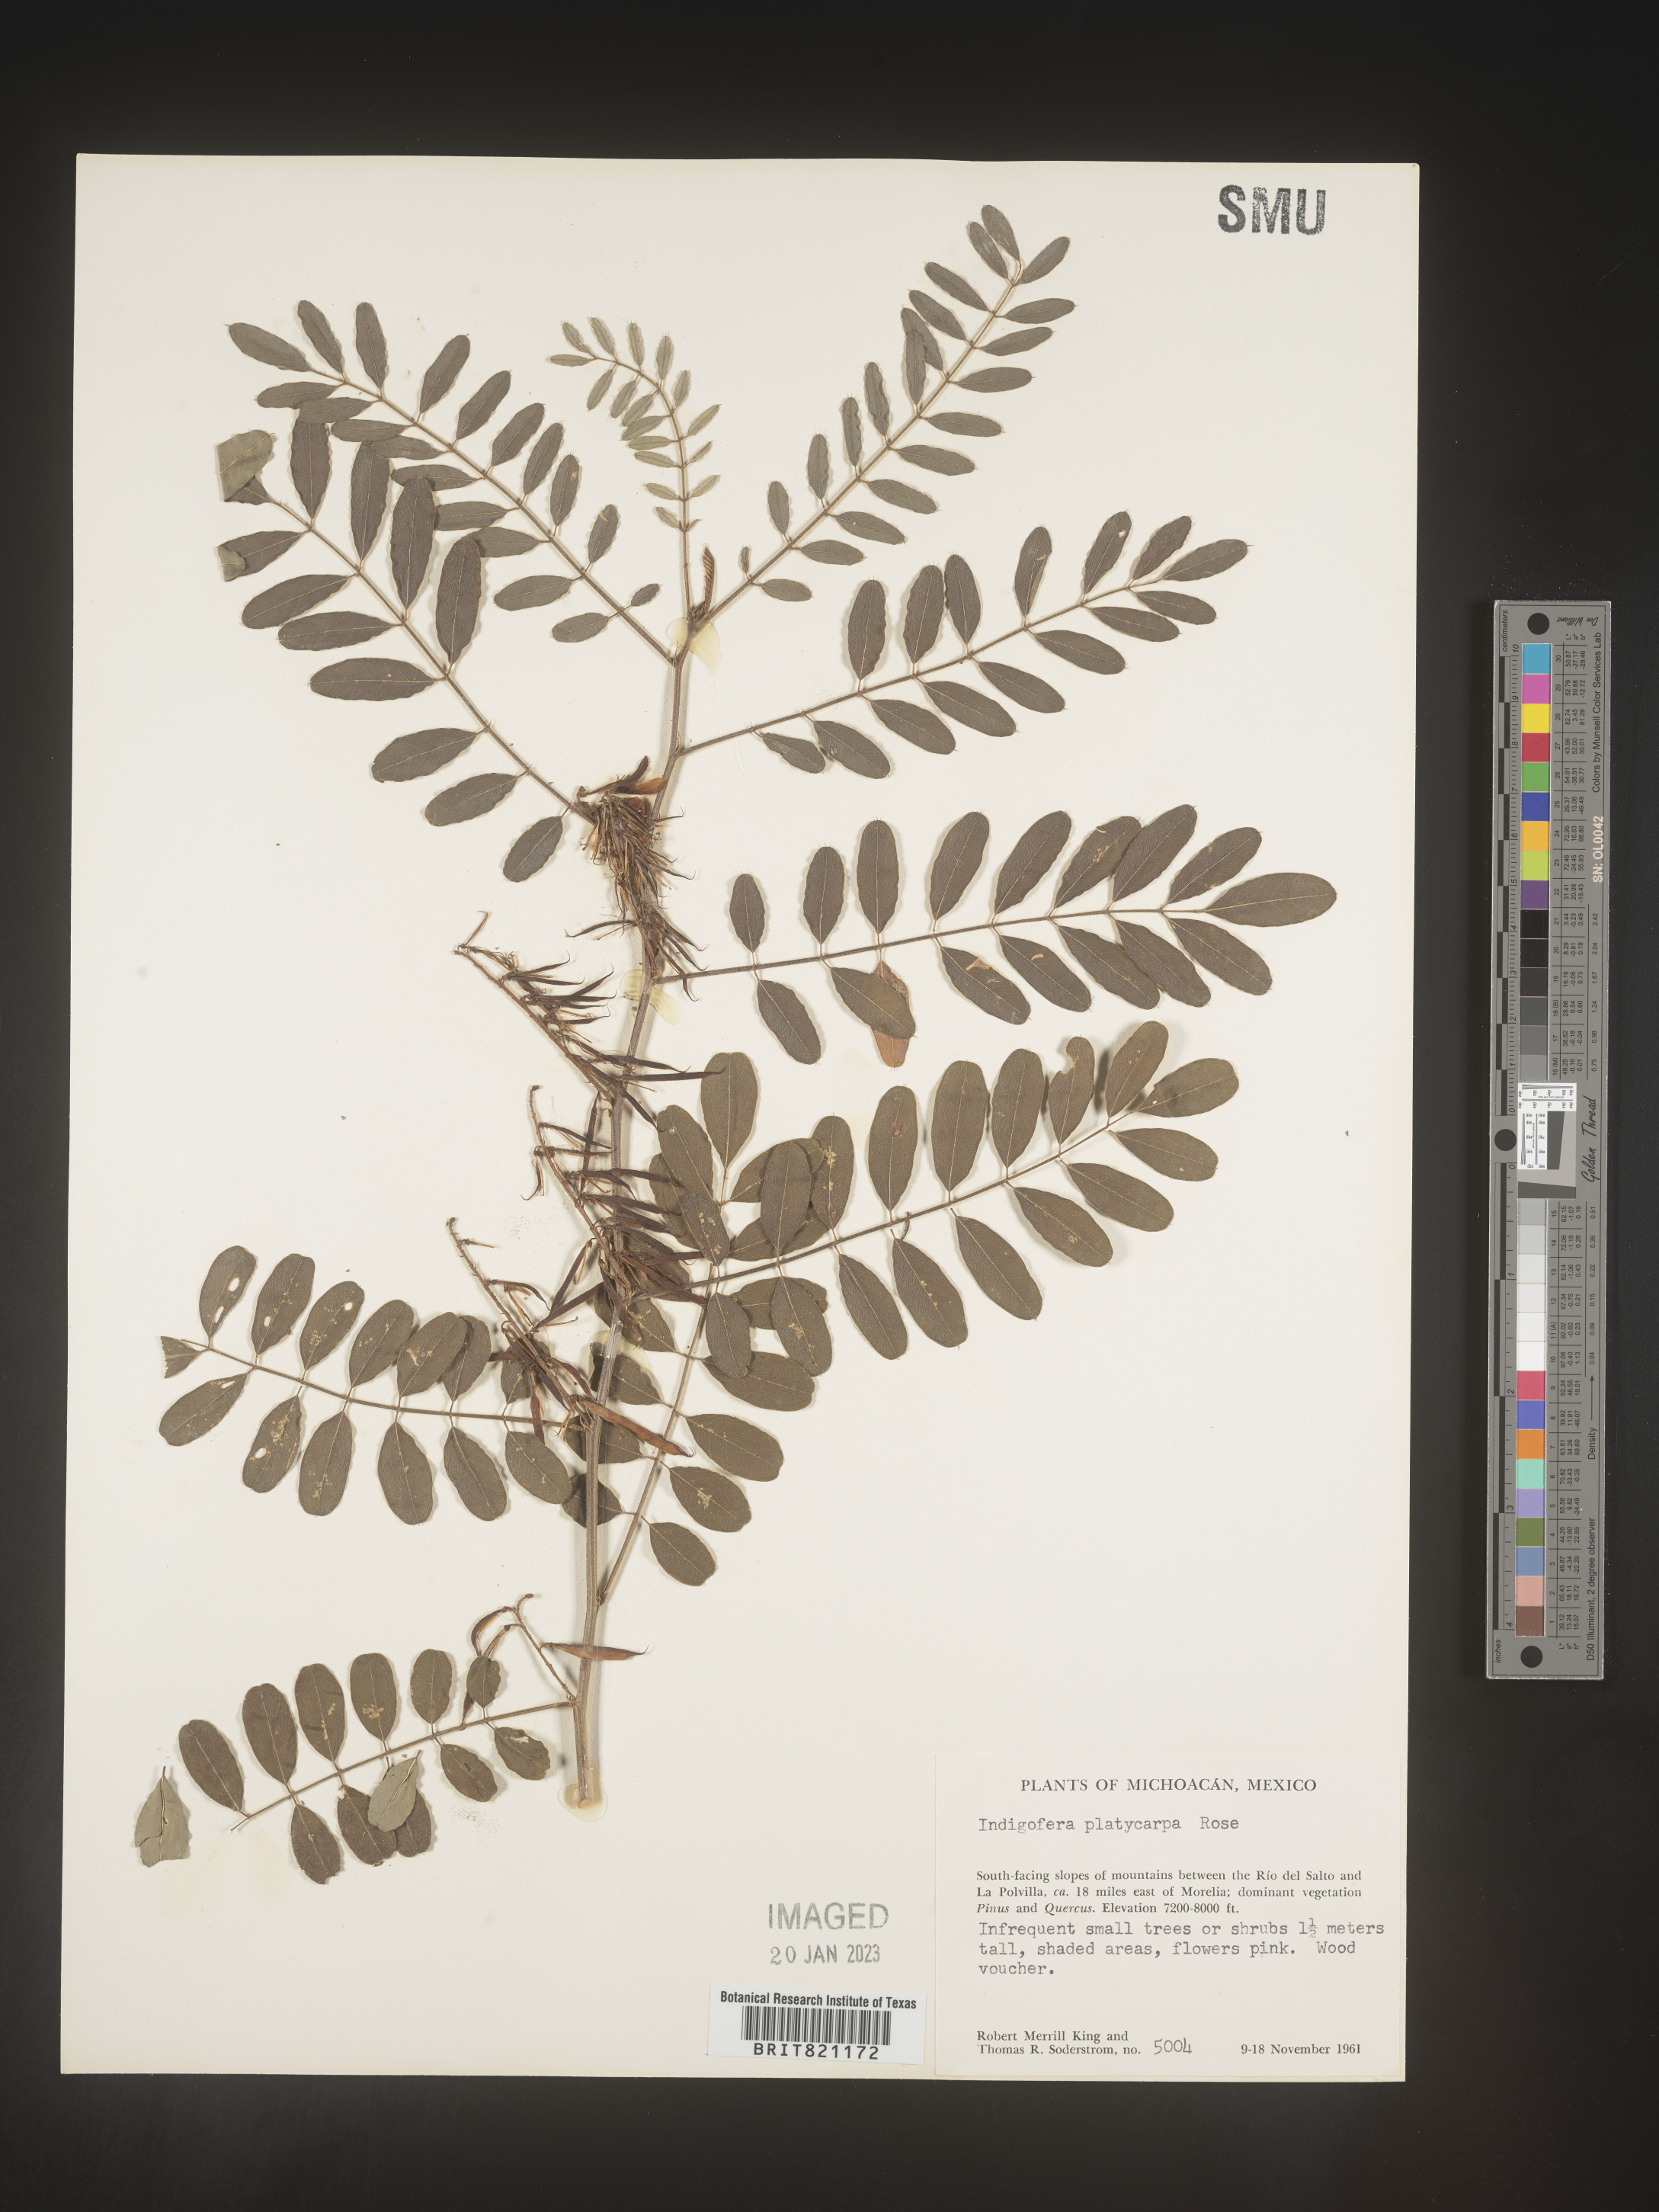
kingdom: Plantae
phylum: Tracheophyta
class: Magnoliopsida
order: Fabales
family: Fabaceae
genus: Indigofera
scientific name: Indigofera
